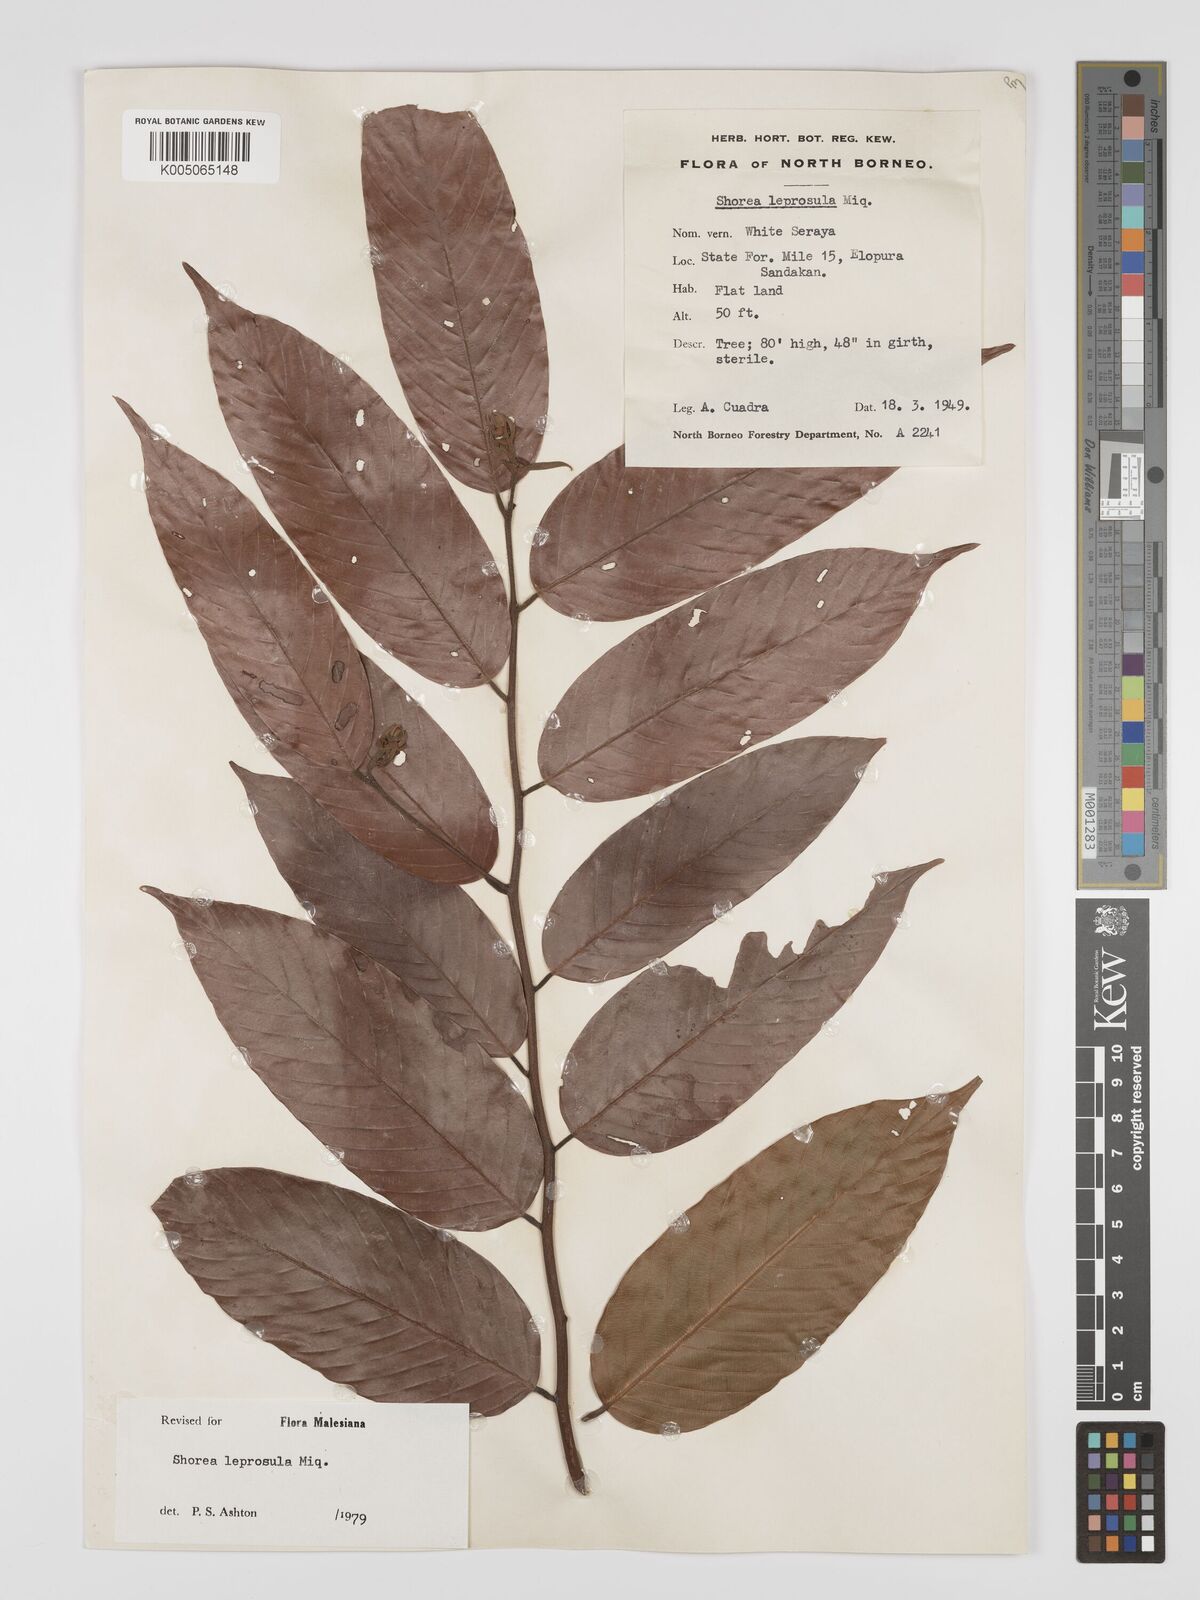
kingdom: Plantae
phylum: Tracheophyta
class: Magnoliopsida
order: Malvales
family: Dipterocarpaceae
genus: Shorea
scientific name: Shorea leprosula
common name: Light red meranti
